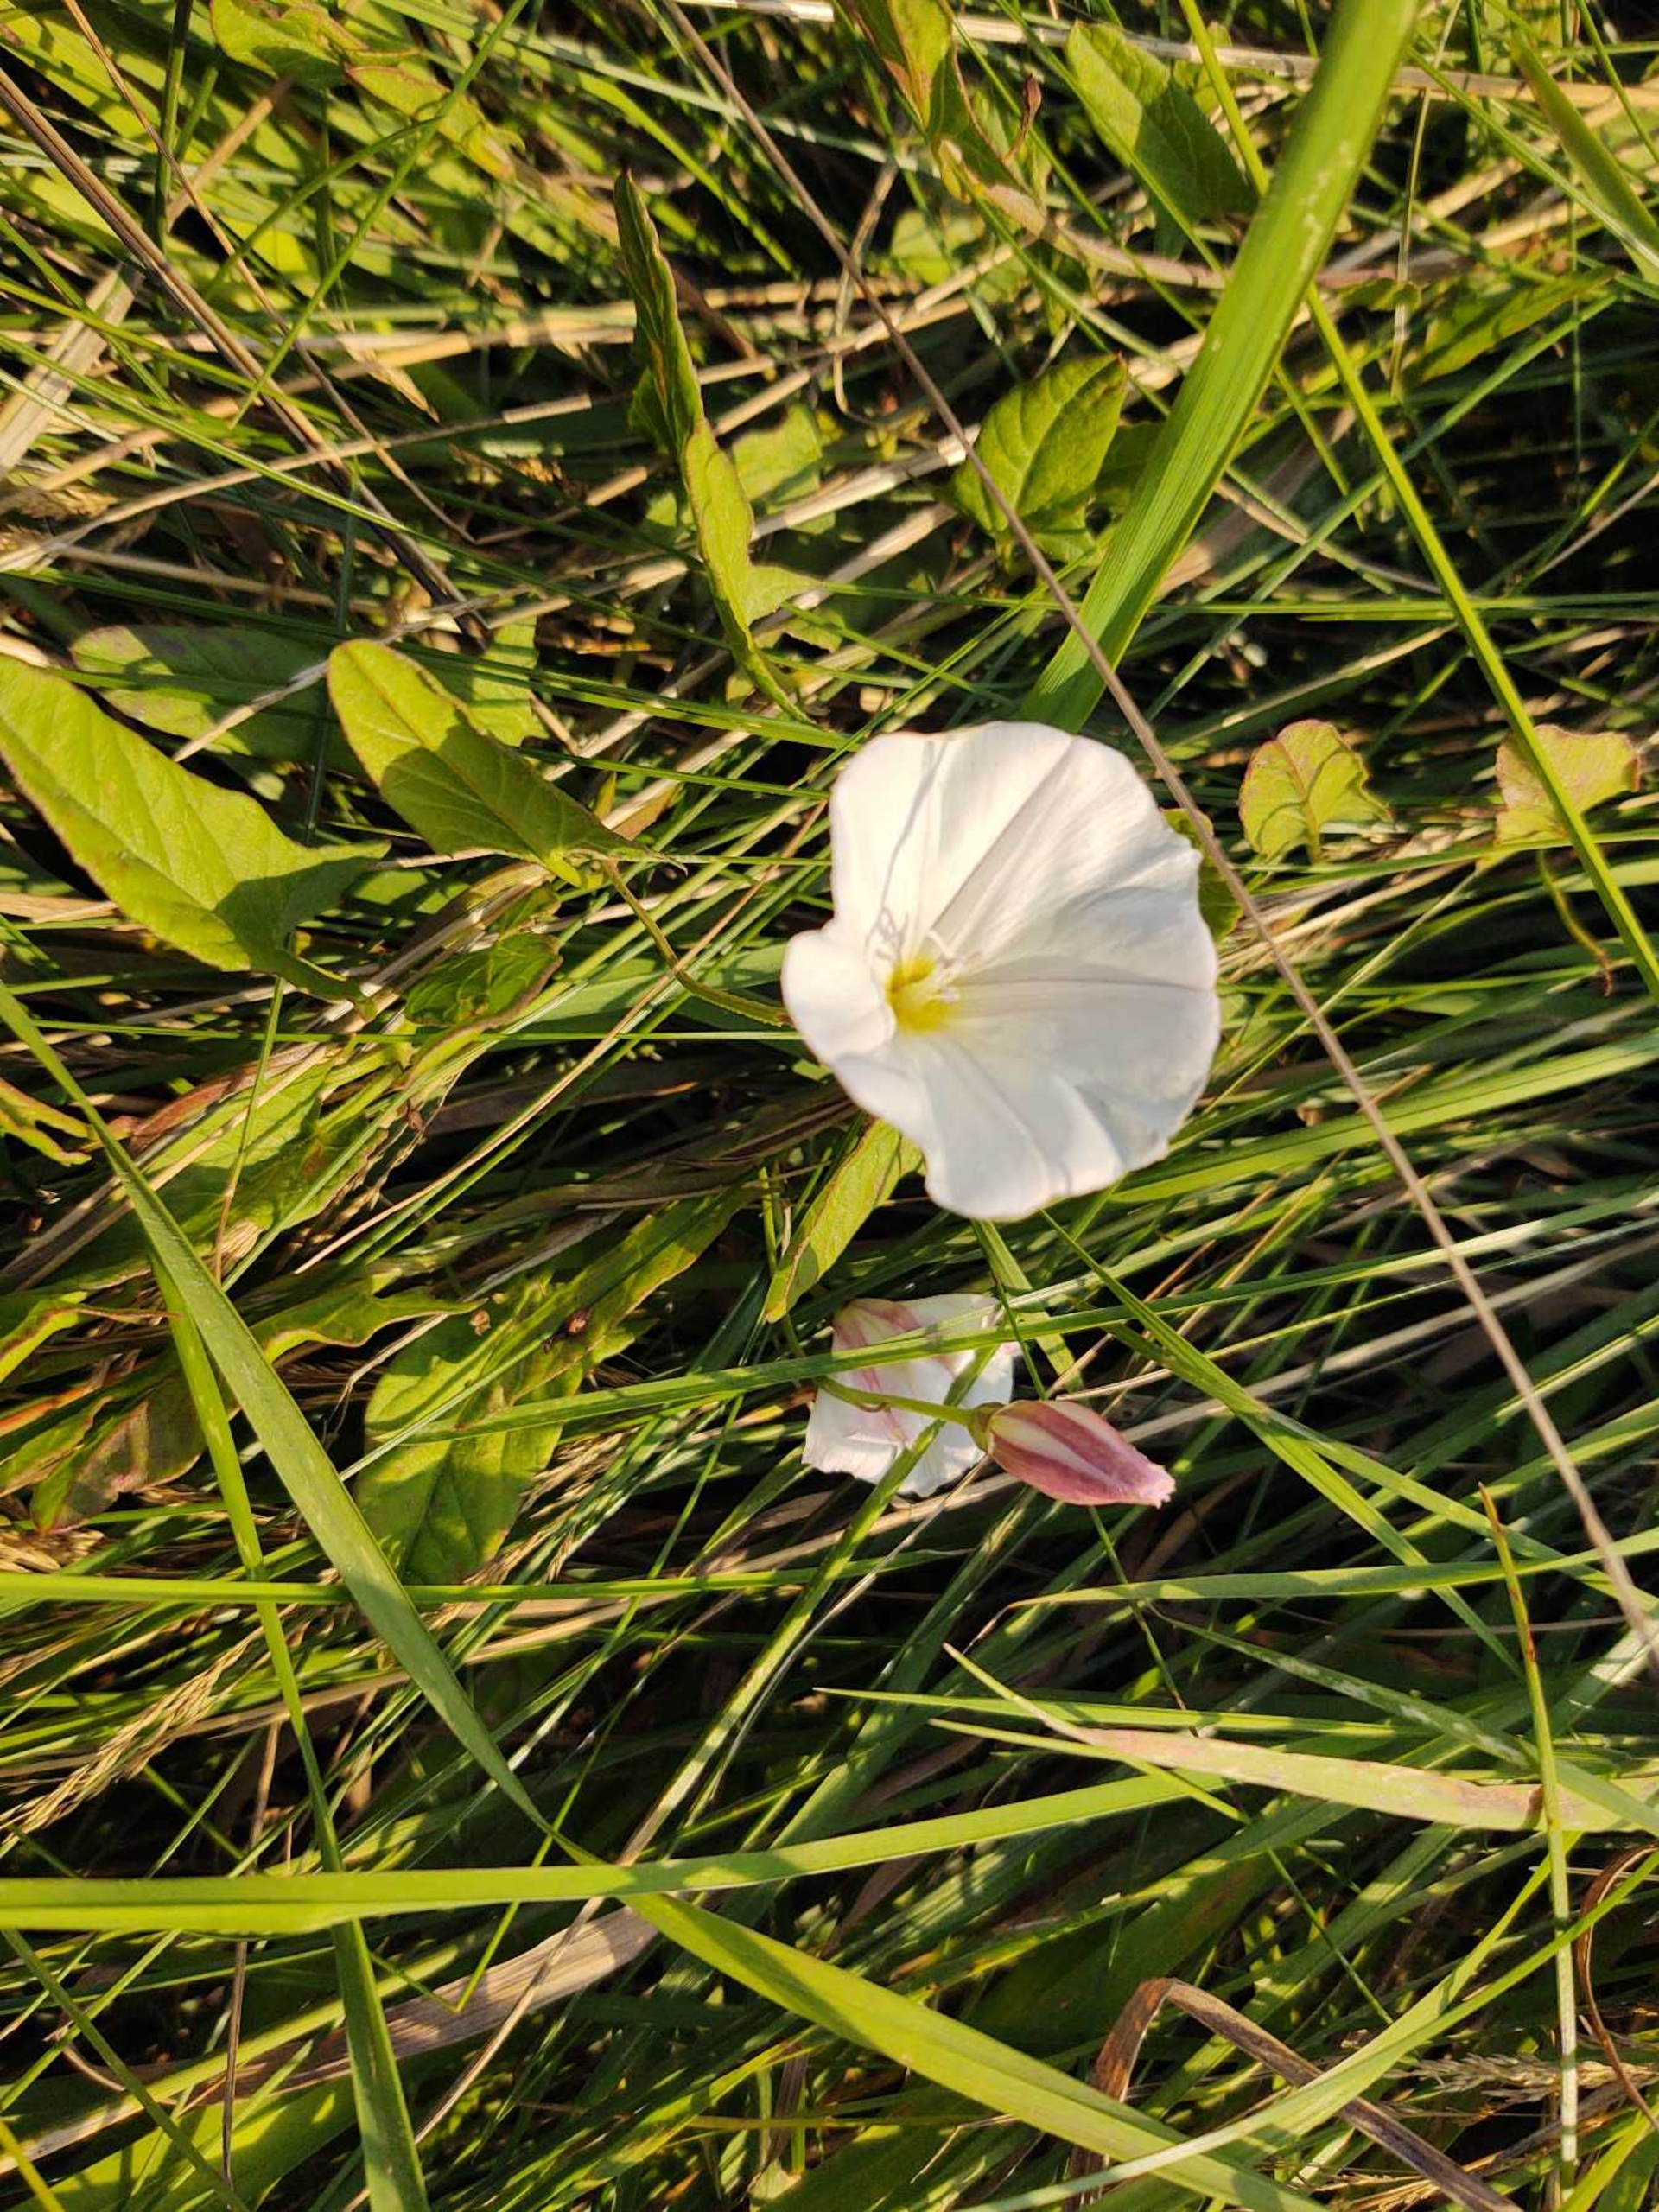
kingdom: Plantae
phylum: Tracheophyta
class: Magnoliopsida
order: Solanales
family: Convolvulaceae
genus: Convolvulus
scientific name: Convolvulus arvensis
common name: Ager-snerle
